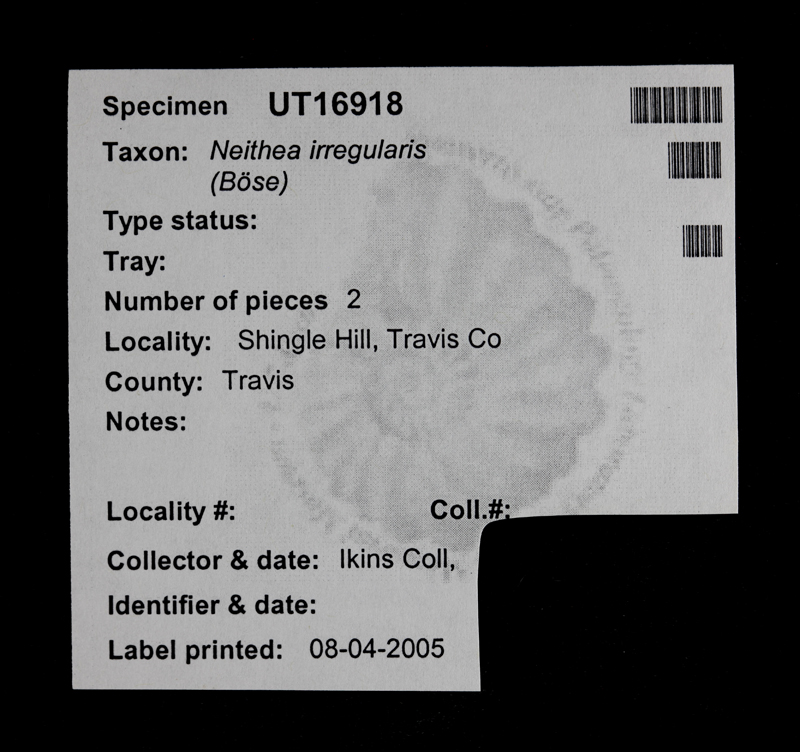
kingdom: Animalia
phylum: Mollusca
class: Bivalvia
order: Pectinida
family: Neitheidae
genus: Neithea
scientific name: Neithea irregularis
